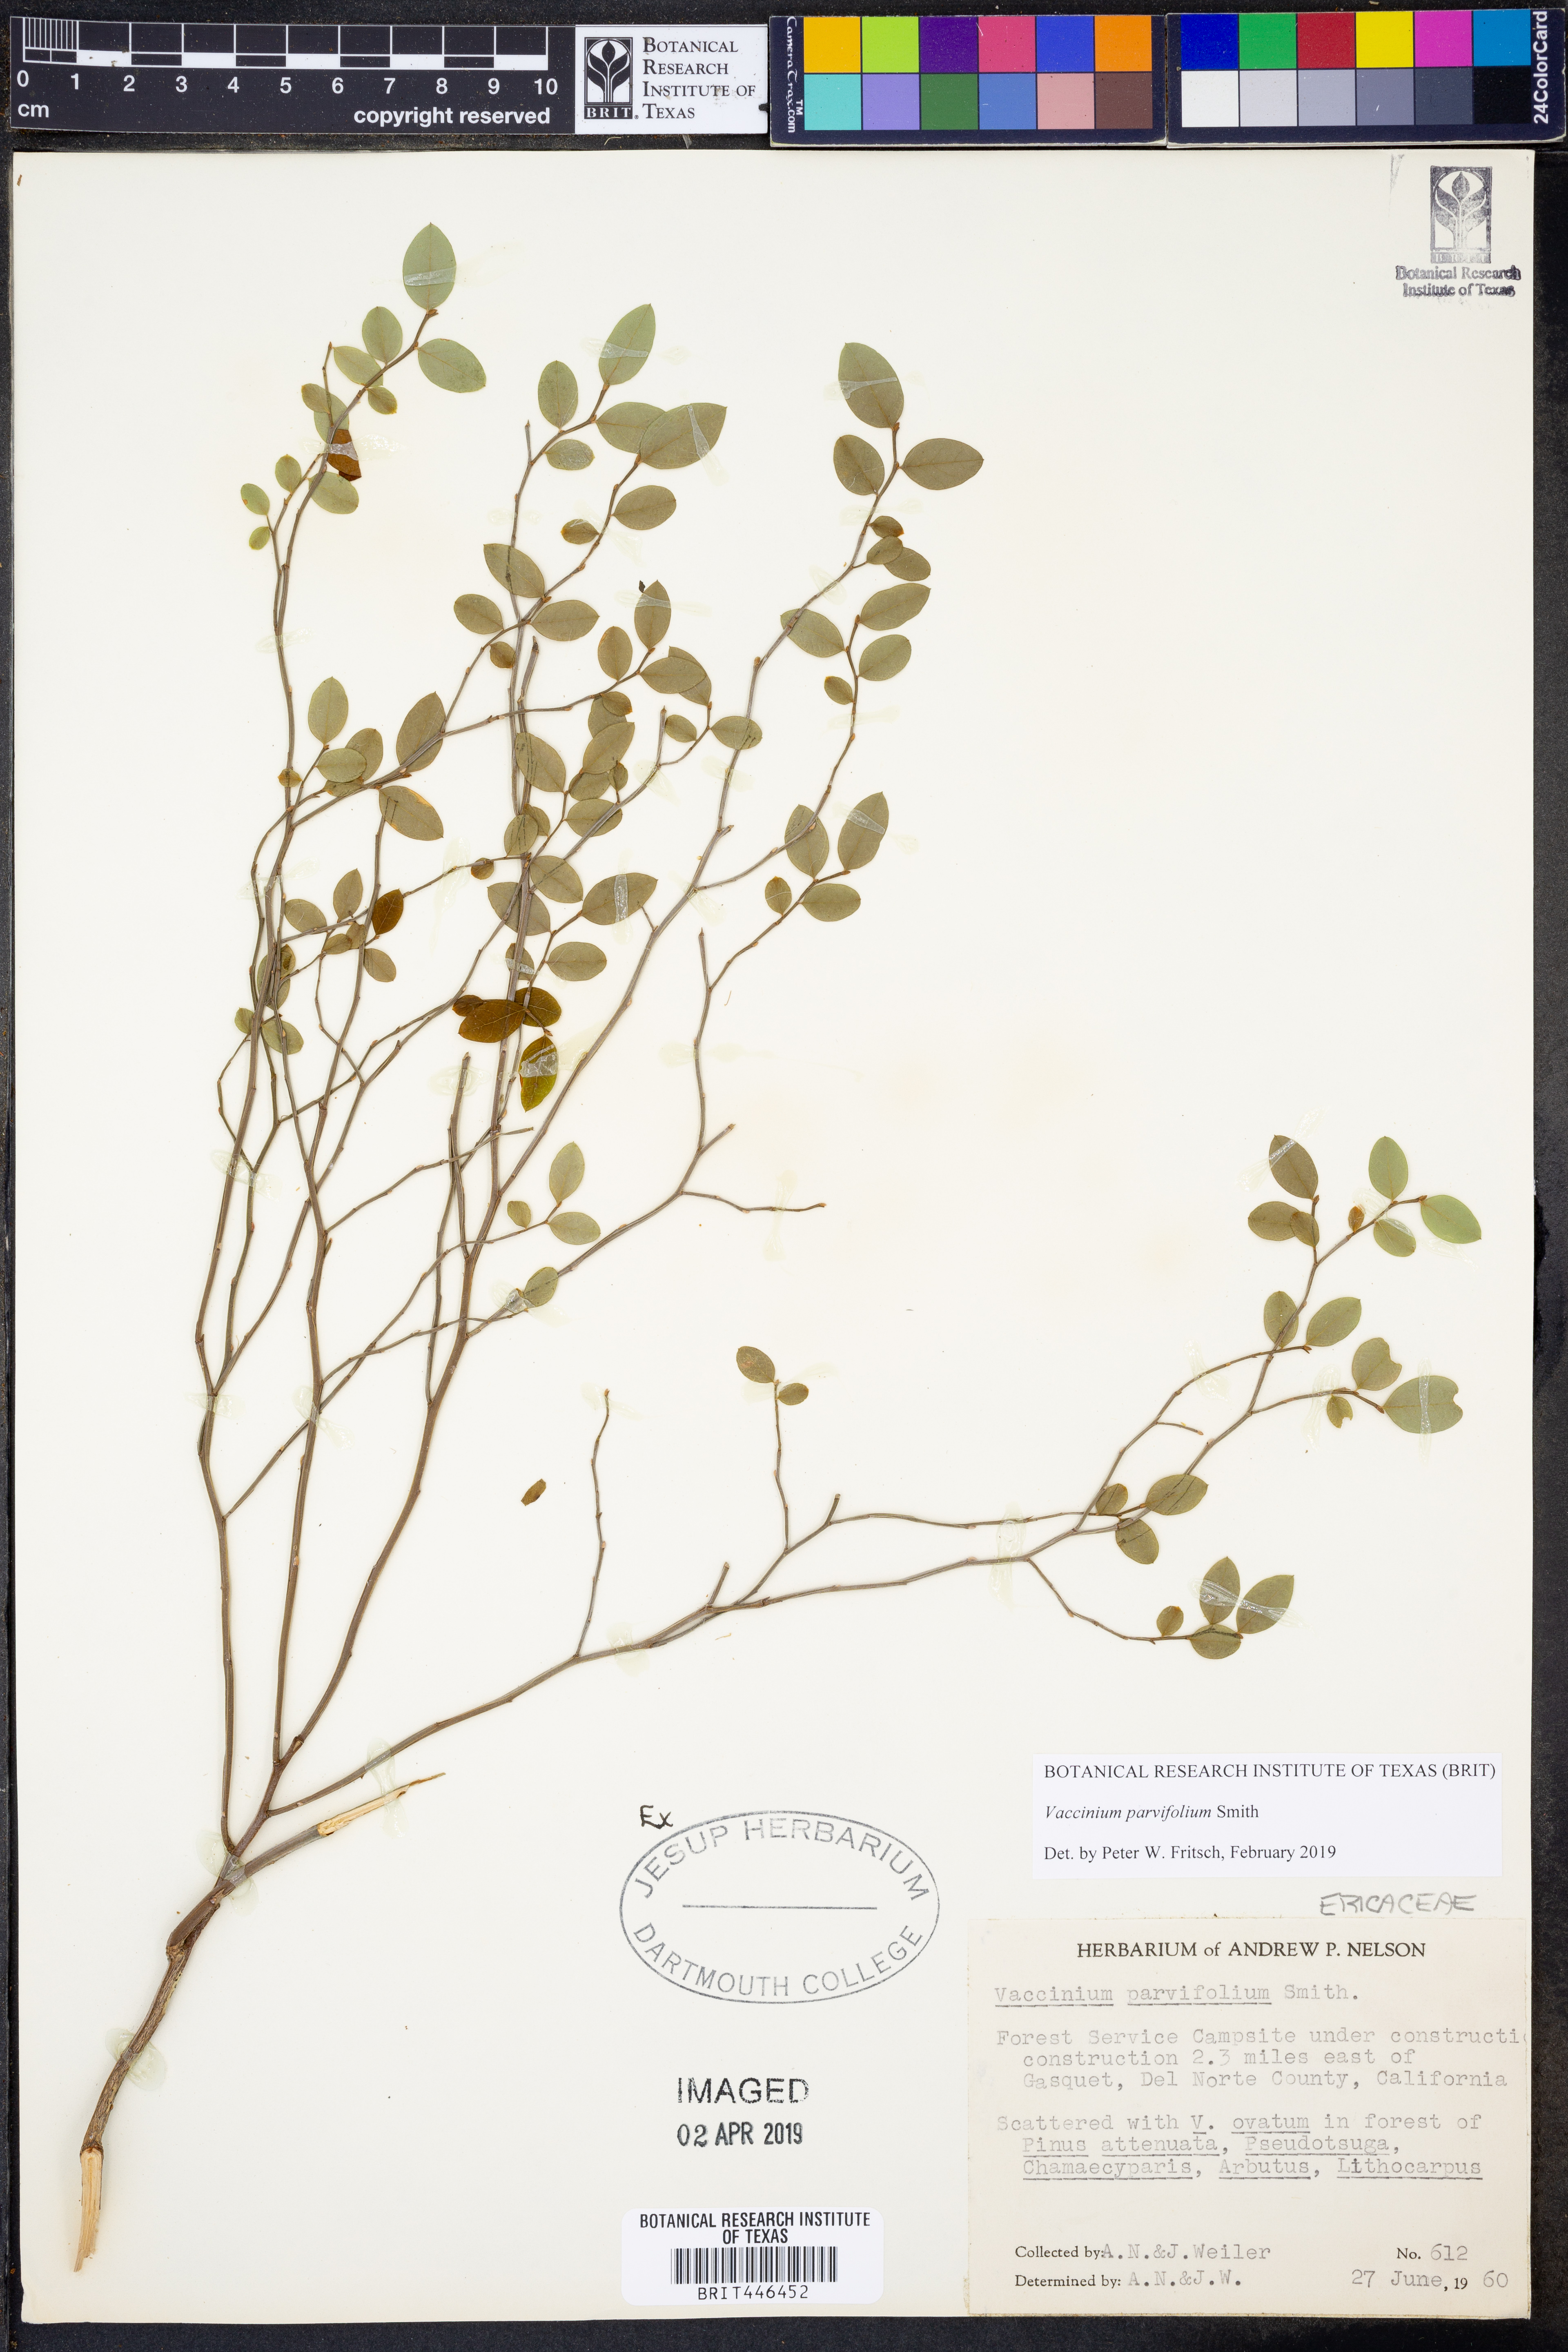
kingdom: Plantae
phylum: Tracheophyta
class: Magnoliopsida
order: Ericales
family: Ericaceae
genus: Vaccinium
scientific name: Vaccinium parvifolium
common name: Red-huckleberry
